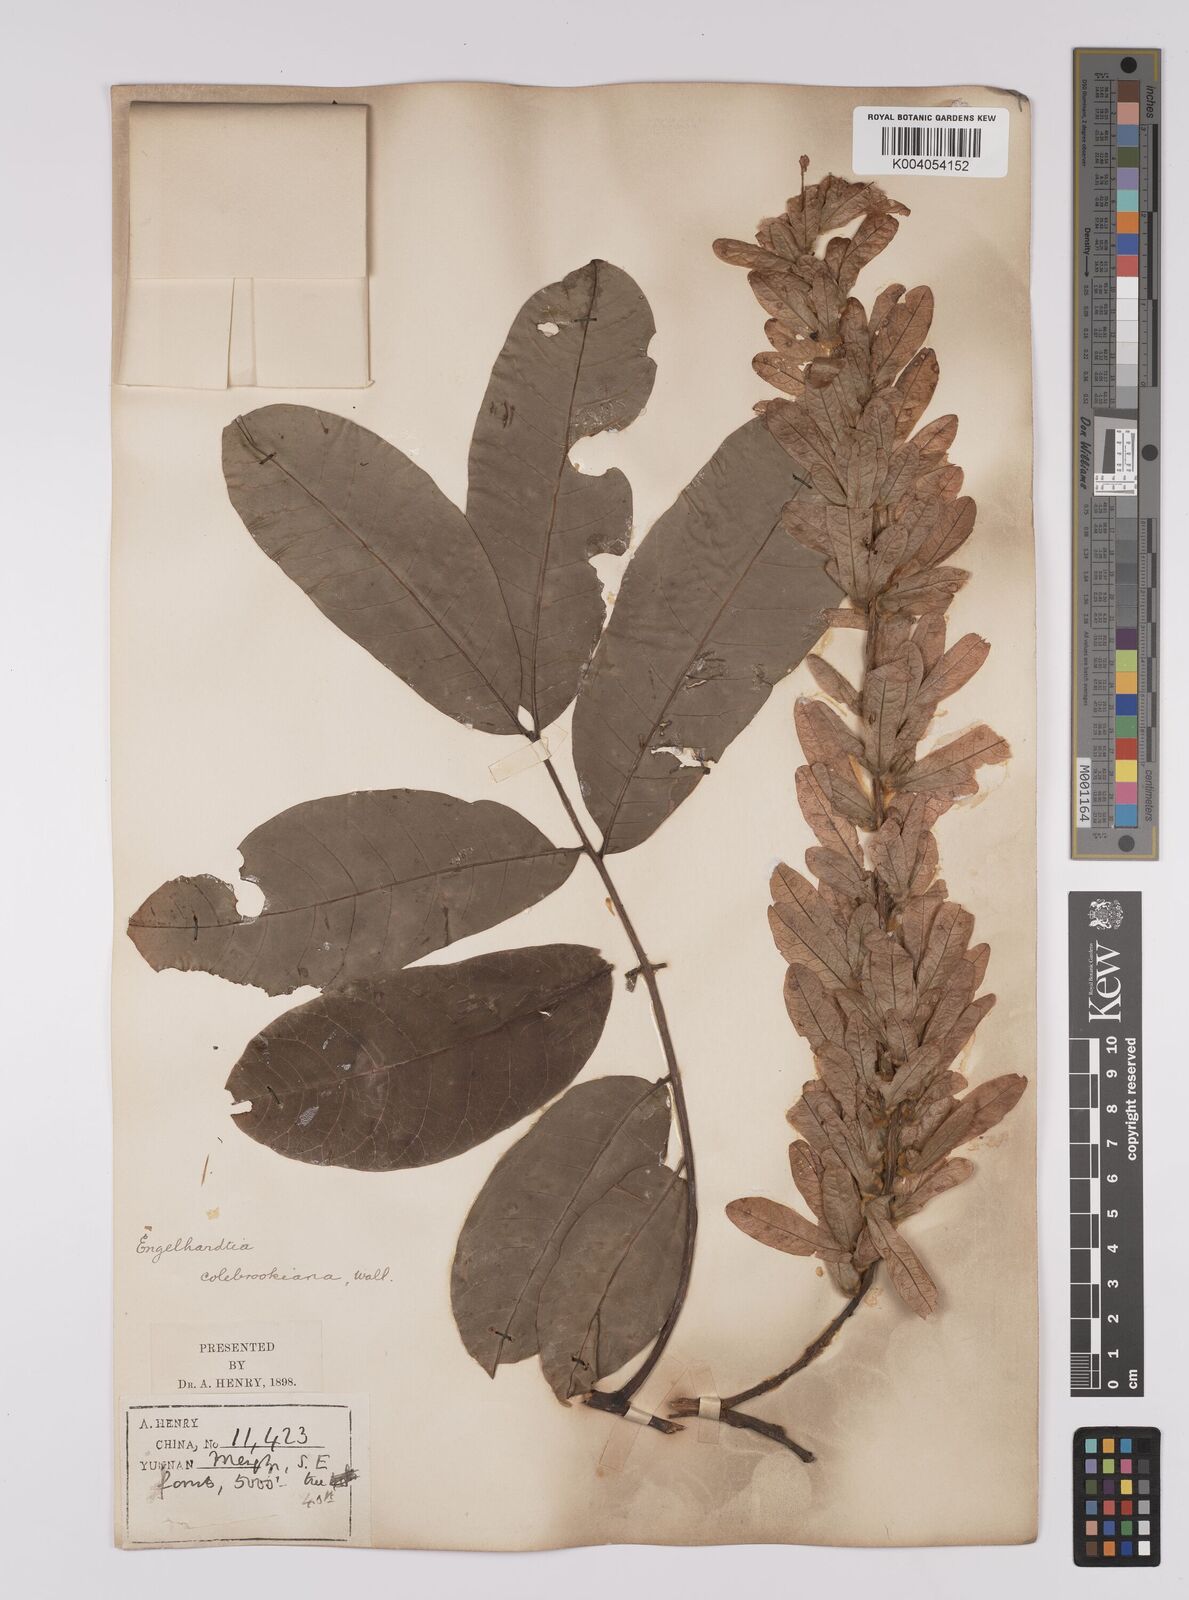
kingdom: Plantae
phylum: Tracheophyta
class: Magnoliopsida
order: Fagales
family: Juglandaceae
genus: Engelhardia
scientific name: Engelhardia spicata
